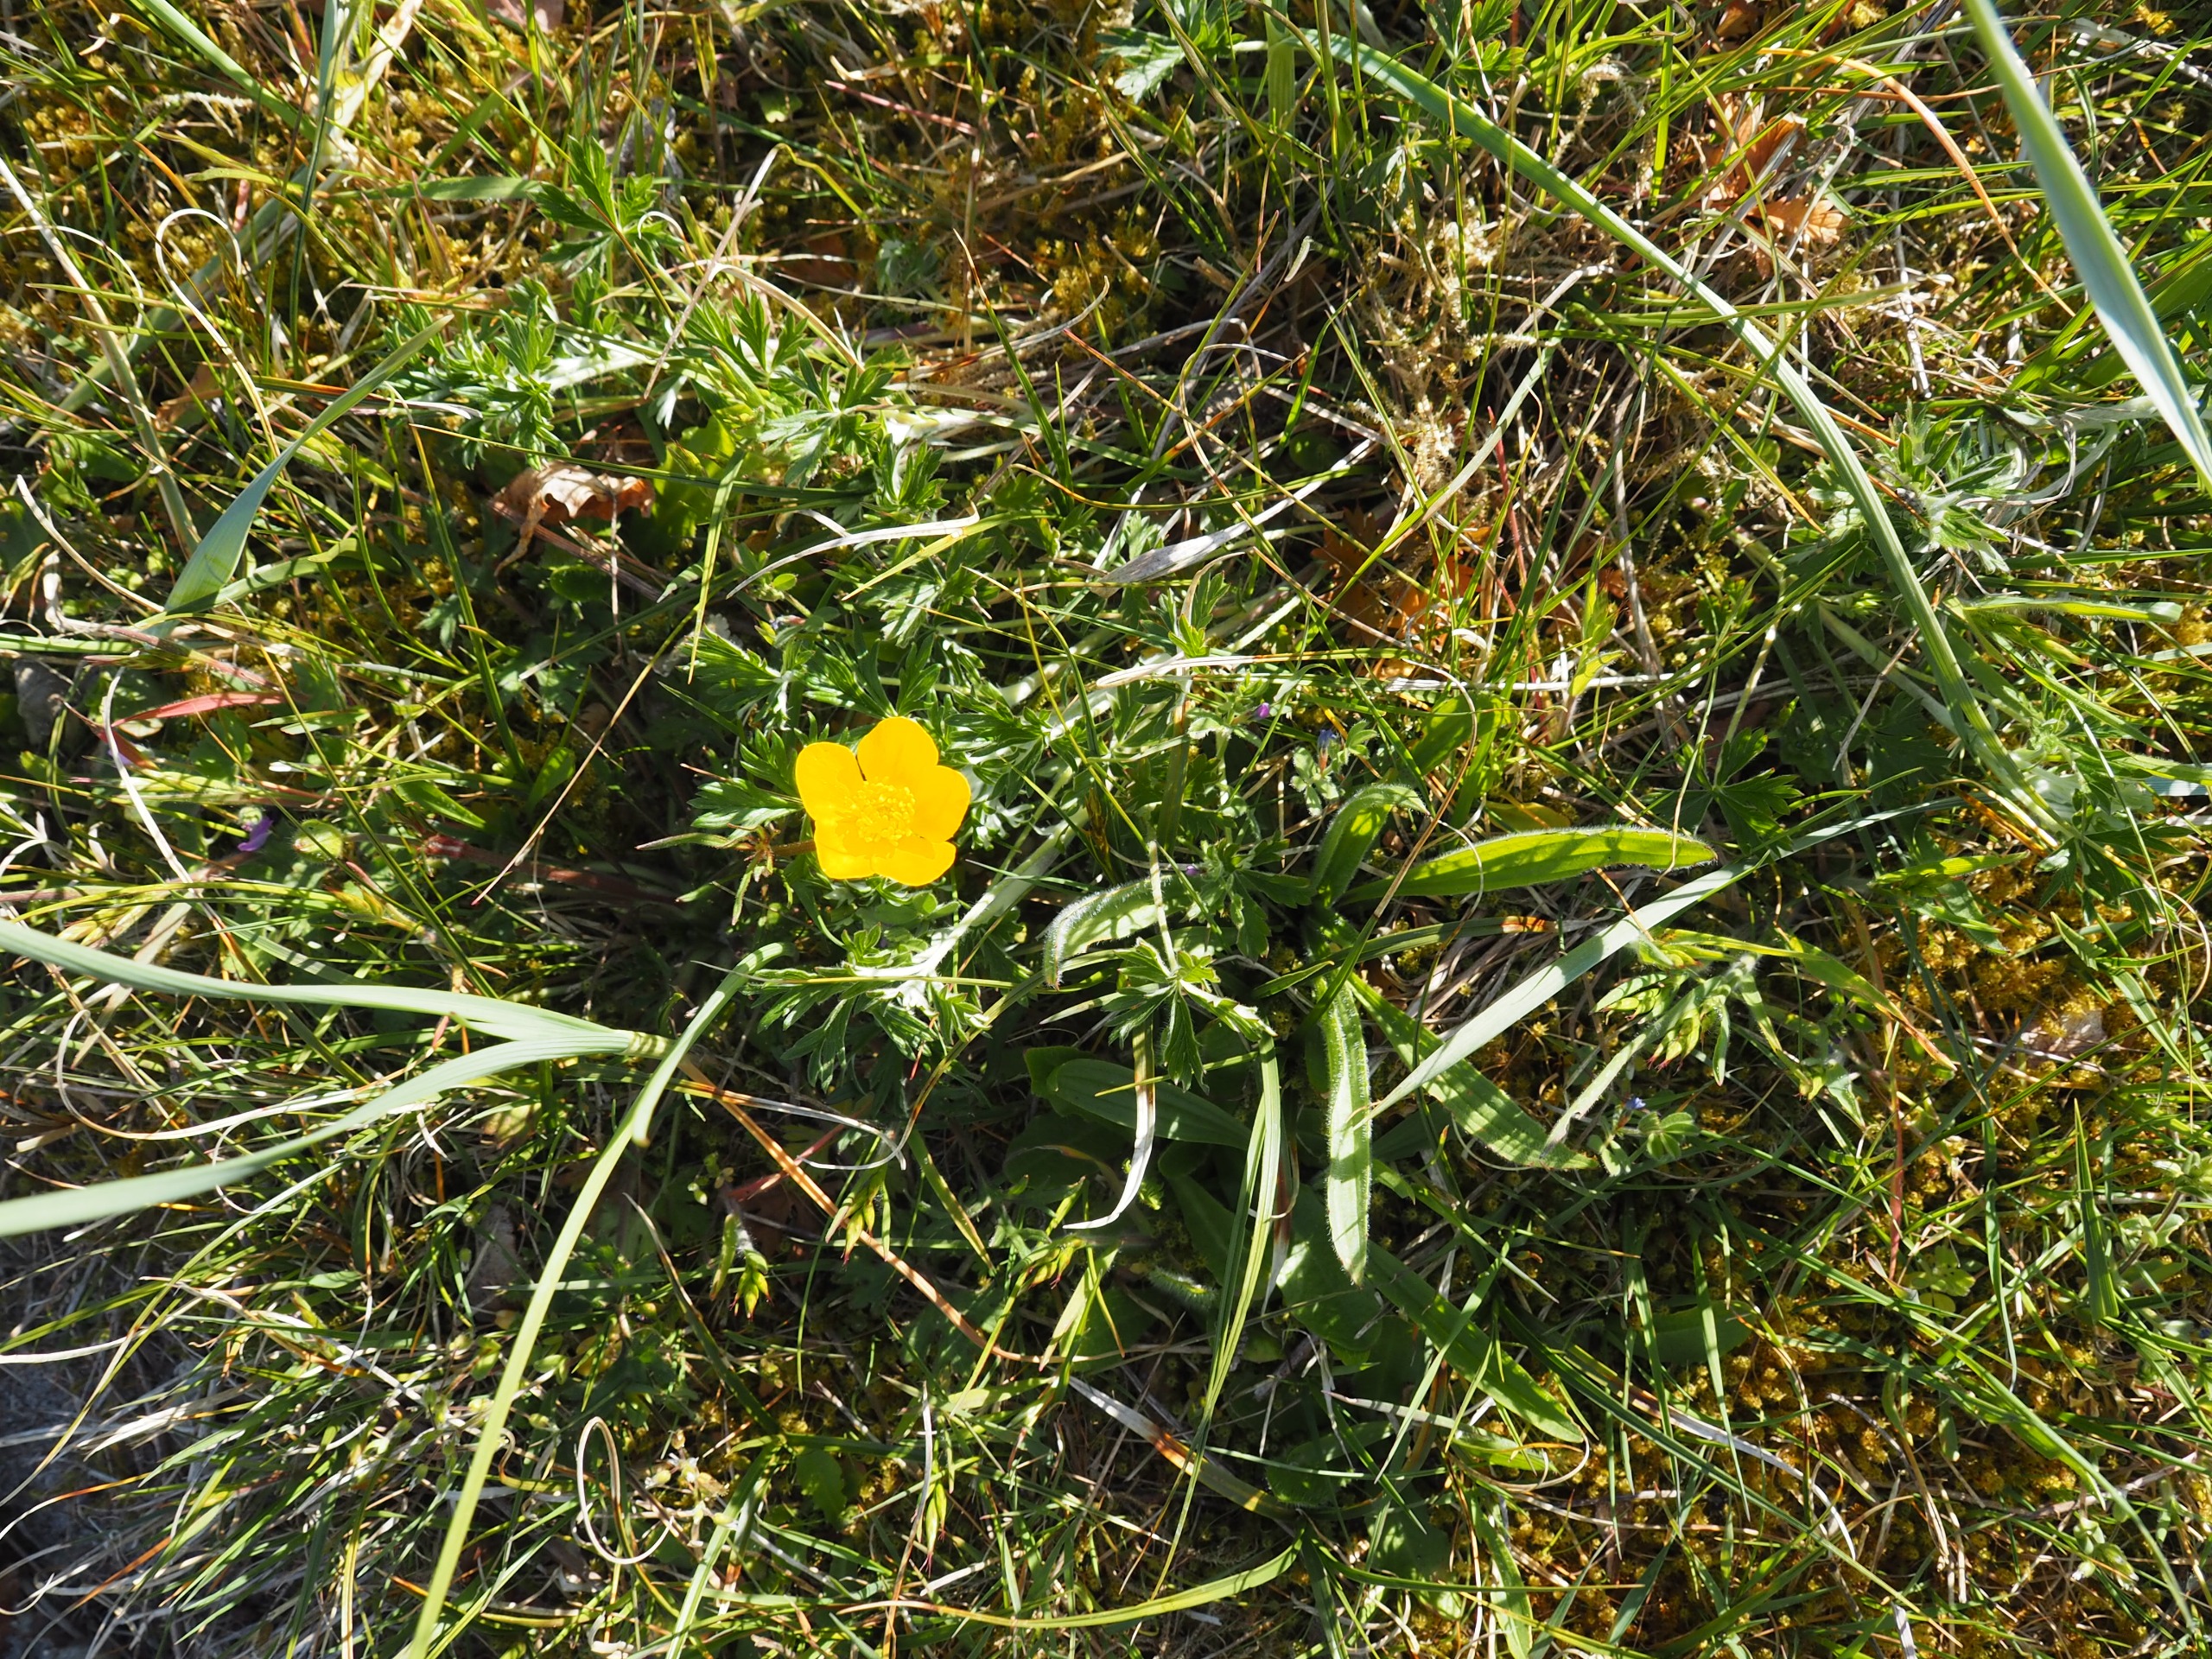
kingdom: Plantae
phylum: Tracheophyta
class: Magnoliopsida
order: Rosales
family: Rosaceae
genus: Potentilla
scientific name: Potentilla argentea
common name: Sølv-potentil
